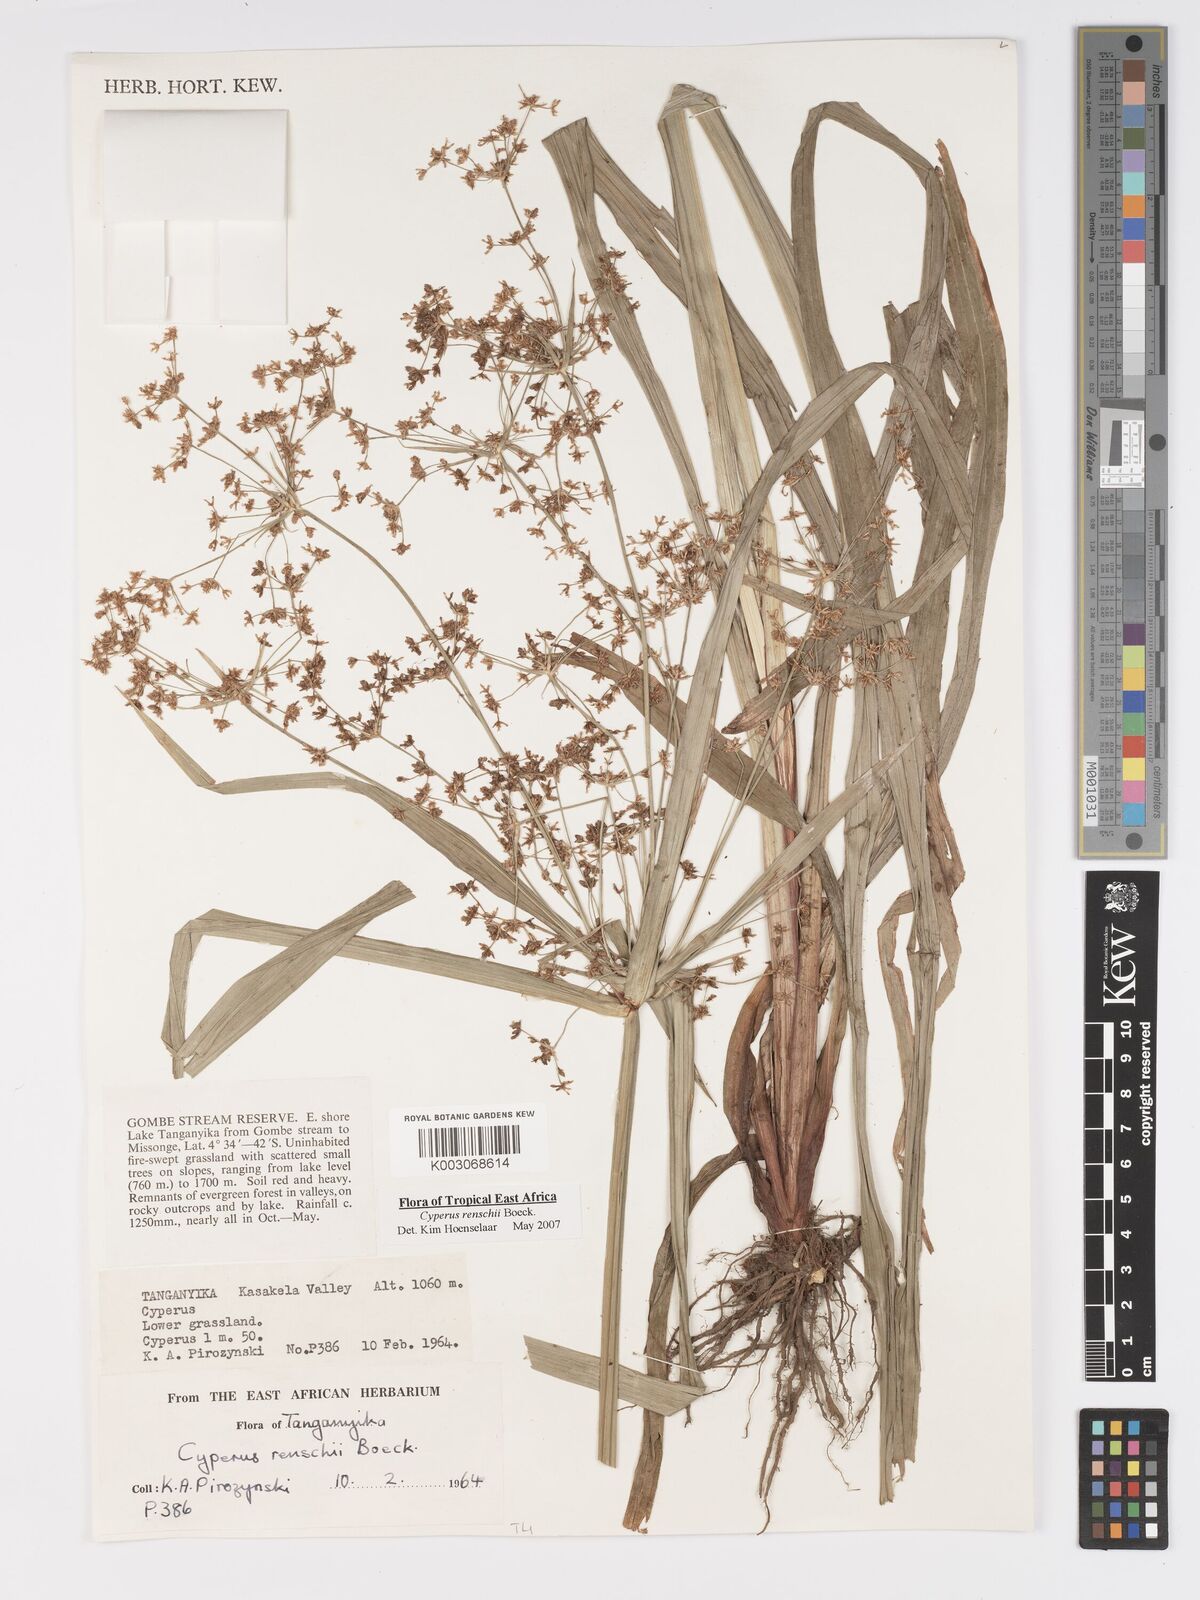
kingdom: Plantae
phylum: Tracheophyta
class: Liliopsida
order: Poales
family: Cyperaceae
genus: Cyperus
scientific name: Cyperus renschii
